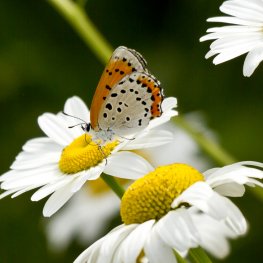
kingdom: Animalia
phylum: Arthropoda
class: Insecta
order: Lepidoptera
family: Sesiidae
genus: Sesia
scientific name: Sesia Lycaena hyllus
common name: Bronze Copper
